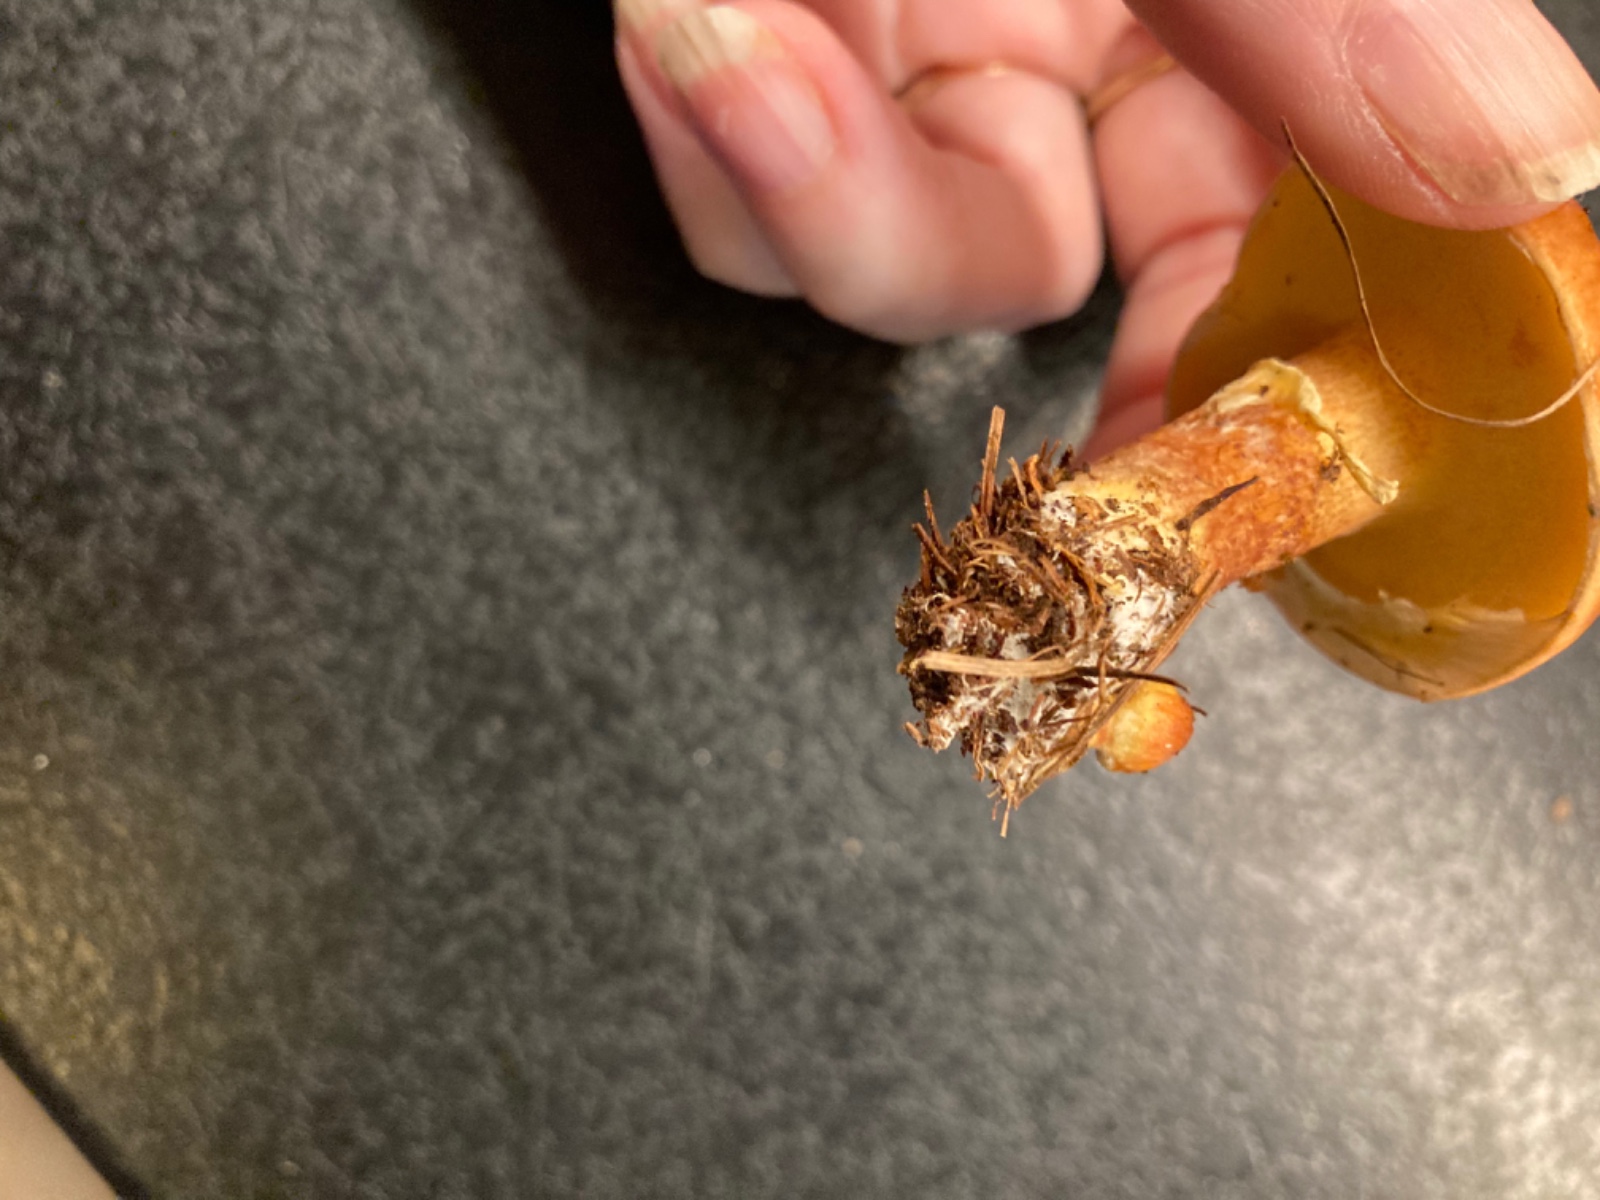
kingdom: Fungi
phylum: Basidiomycota
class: Agaricomycetes
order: Boletales
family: Suillaceae
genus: Suillus
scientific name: Suillus grevillei
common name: lærke-slimrørhat
